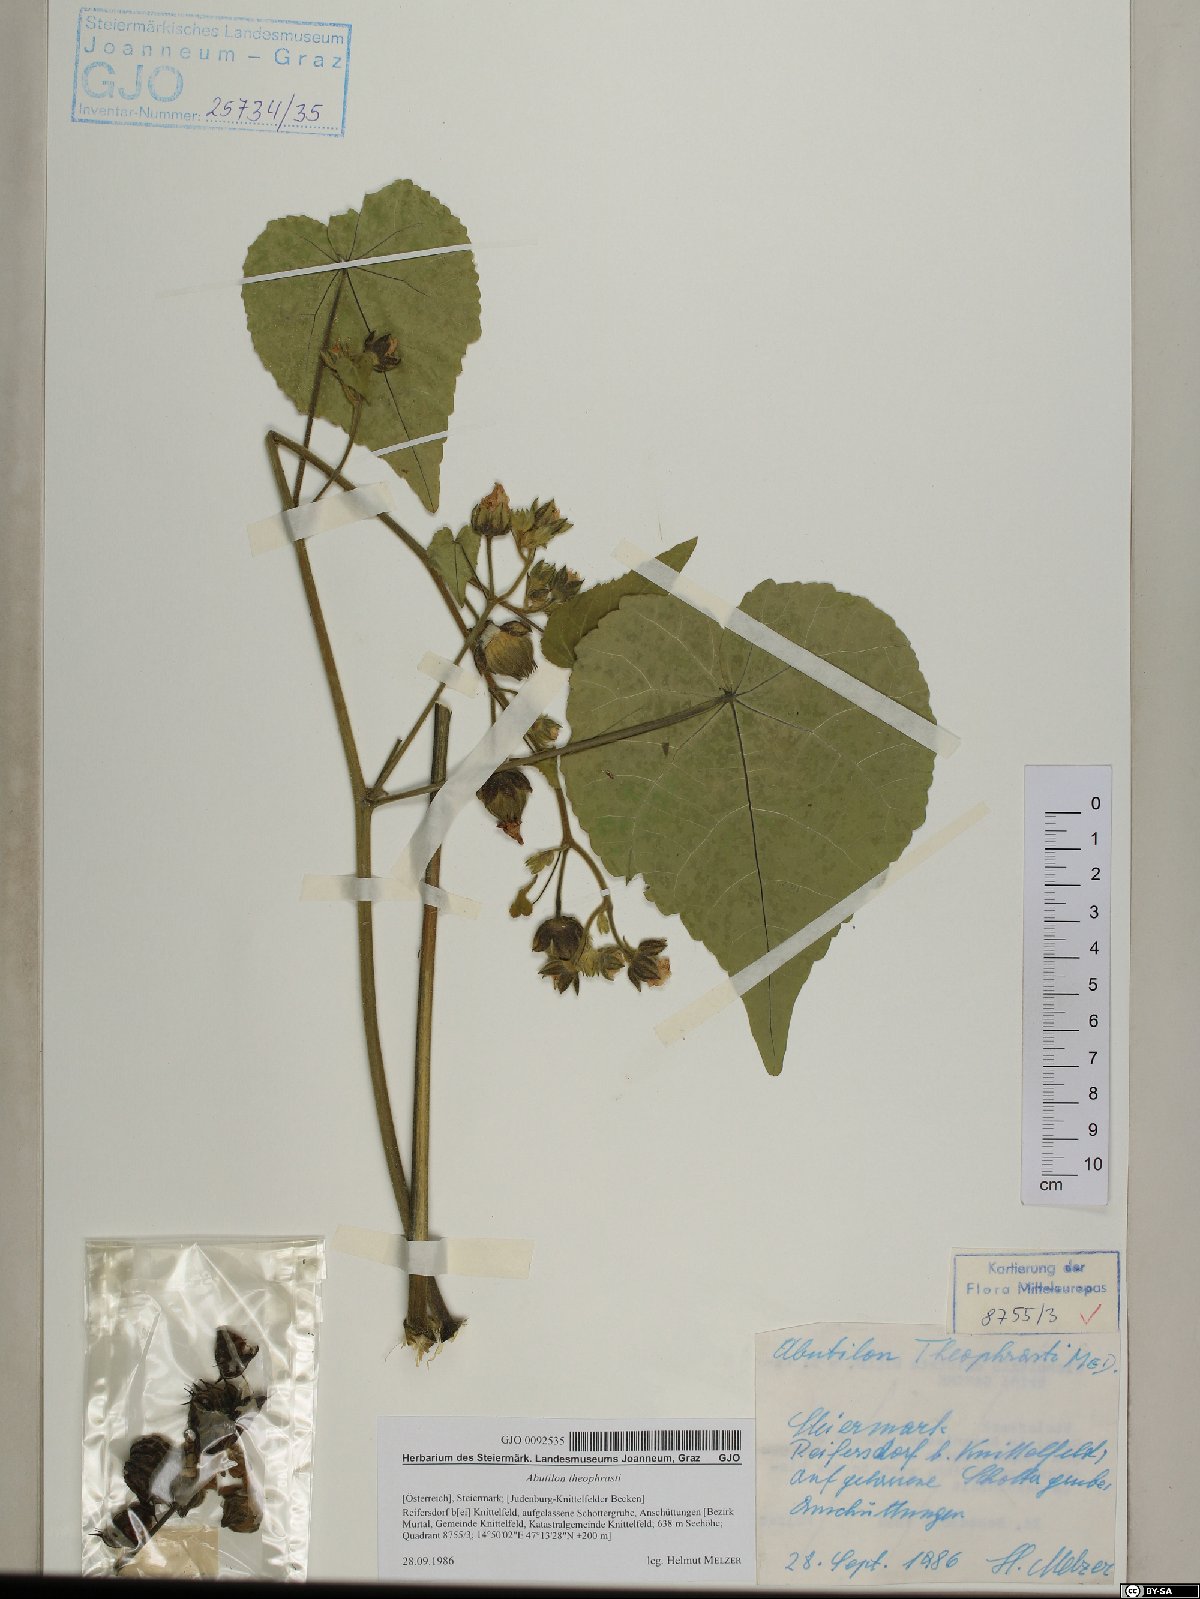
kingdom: Plantae
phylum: Tracheophyta
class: Magnoliopsida
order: Malvales
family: Malvaceae
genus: Abutilon
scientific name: Abutilon theophrasti
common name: Velvetleaf
